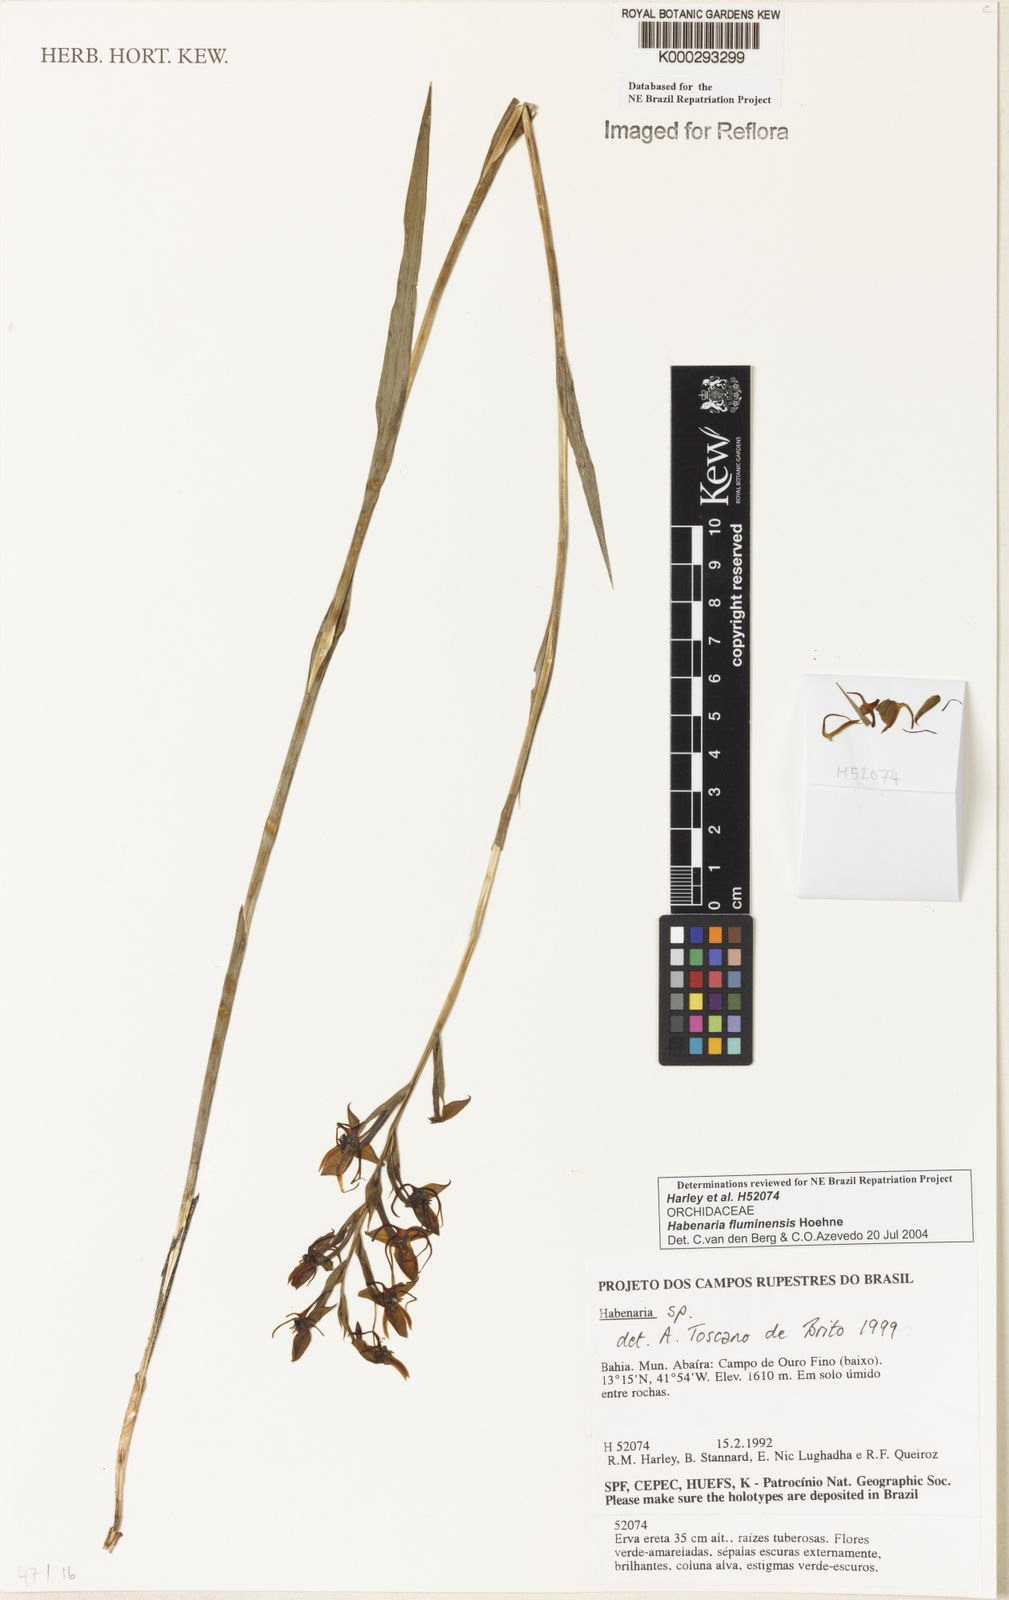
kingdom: Plantae
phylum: Tracheophyta
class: Liliopsida
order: Asparagales
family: Orchidaceae
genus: Habenaria
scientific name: Habenaria fluminensis
